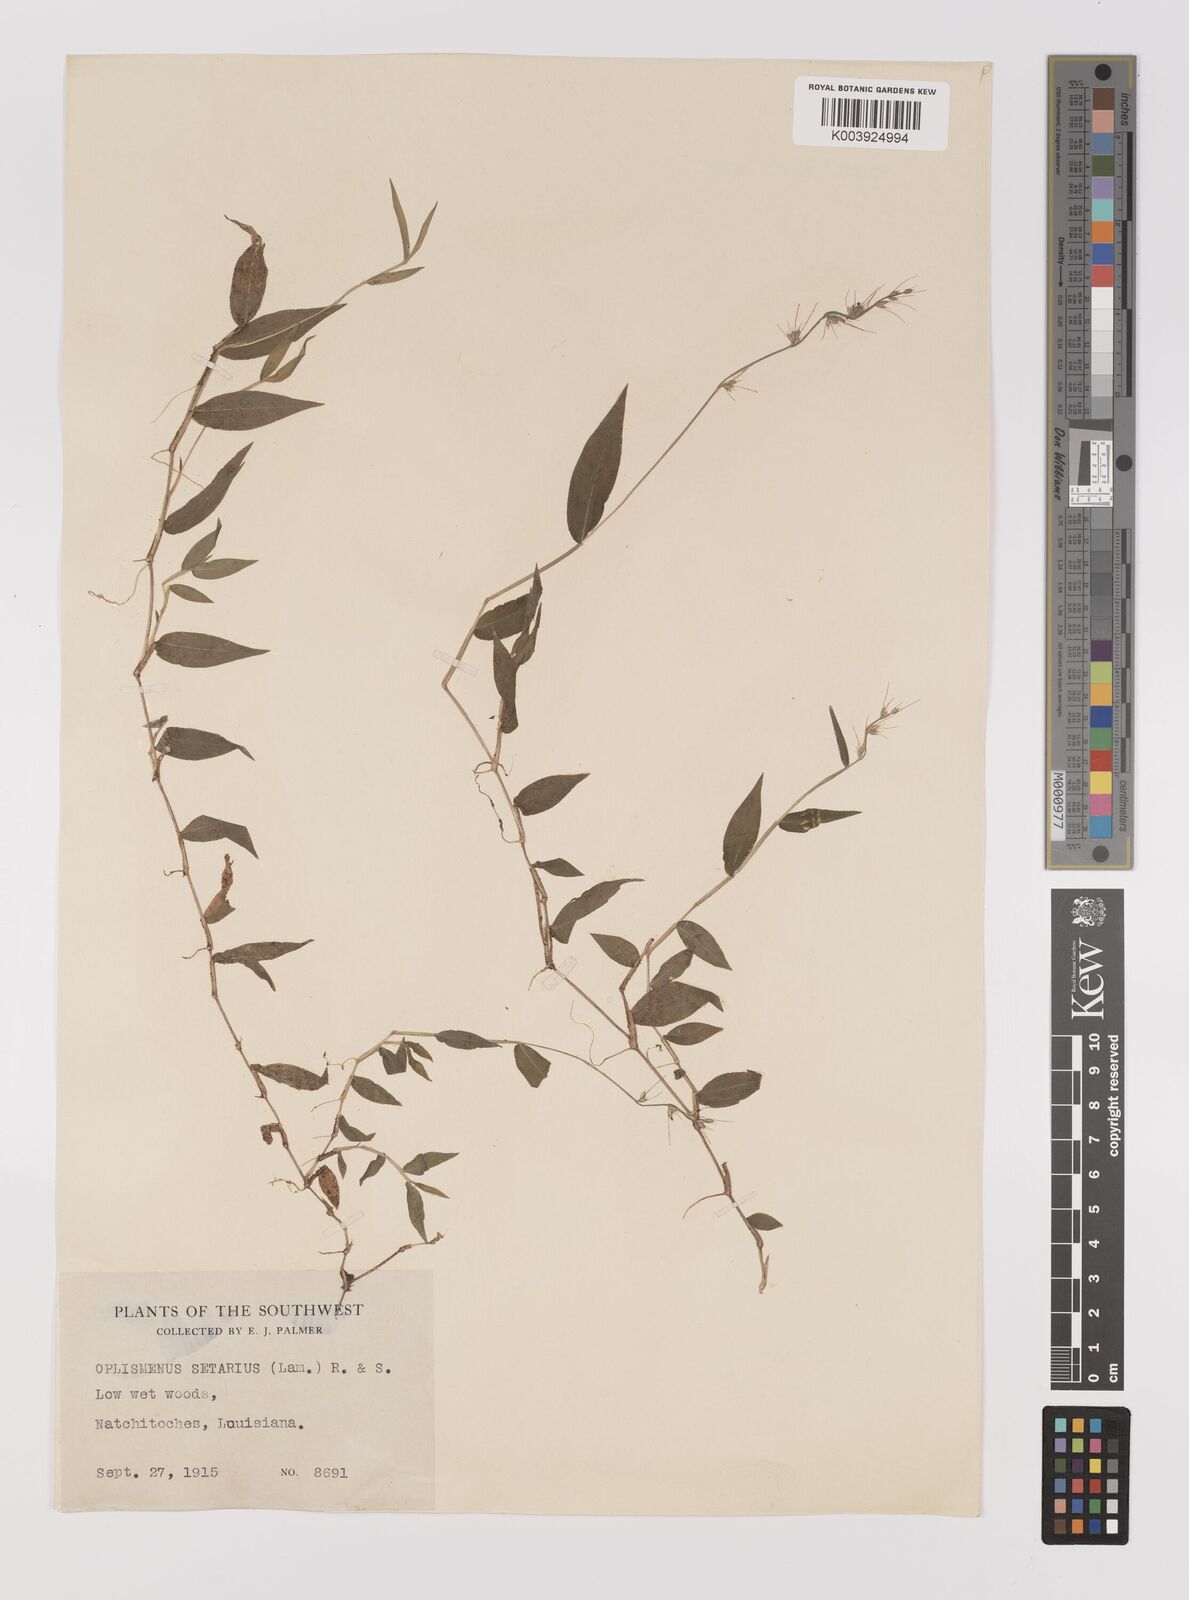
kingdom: Plantae
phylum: Tracheophyta
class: Liliopsida
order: Poales
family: Poaceae
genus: Oplismenus
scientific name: Oplismenus undulatifolius
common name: Wavyleaf basketgrass
